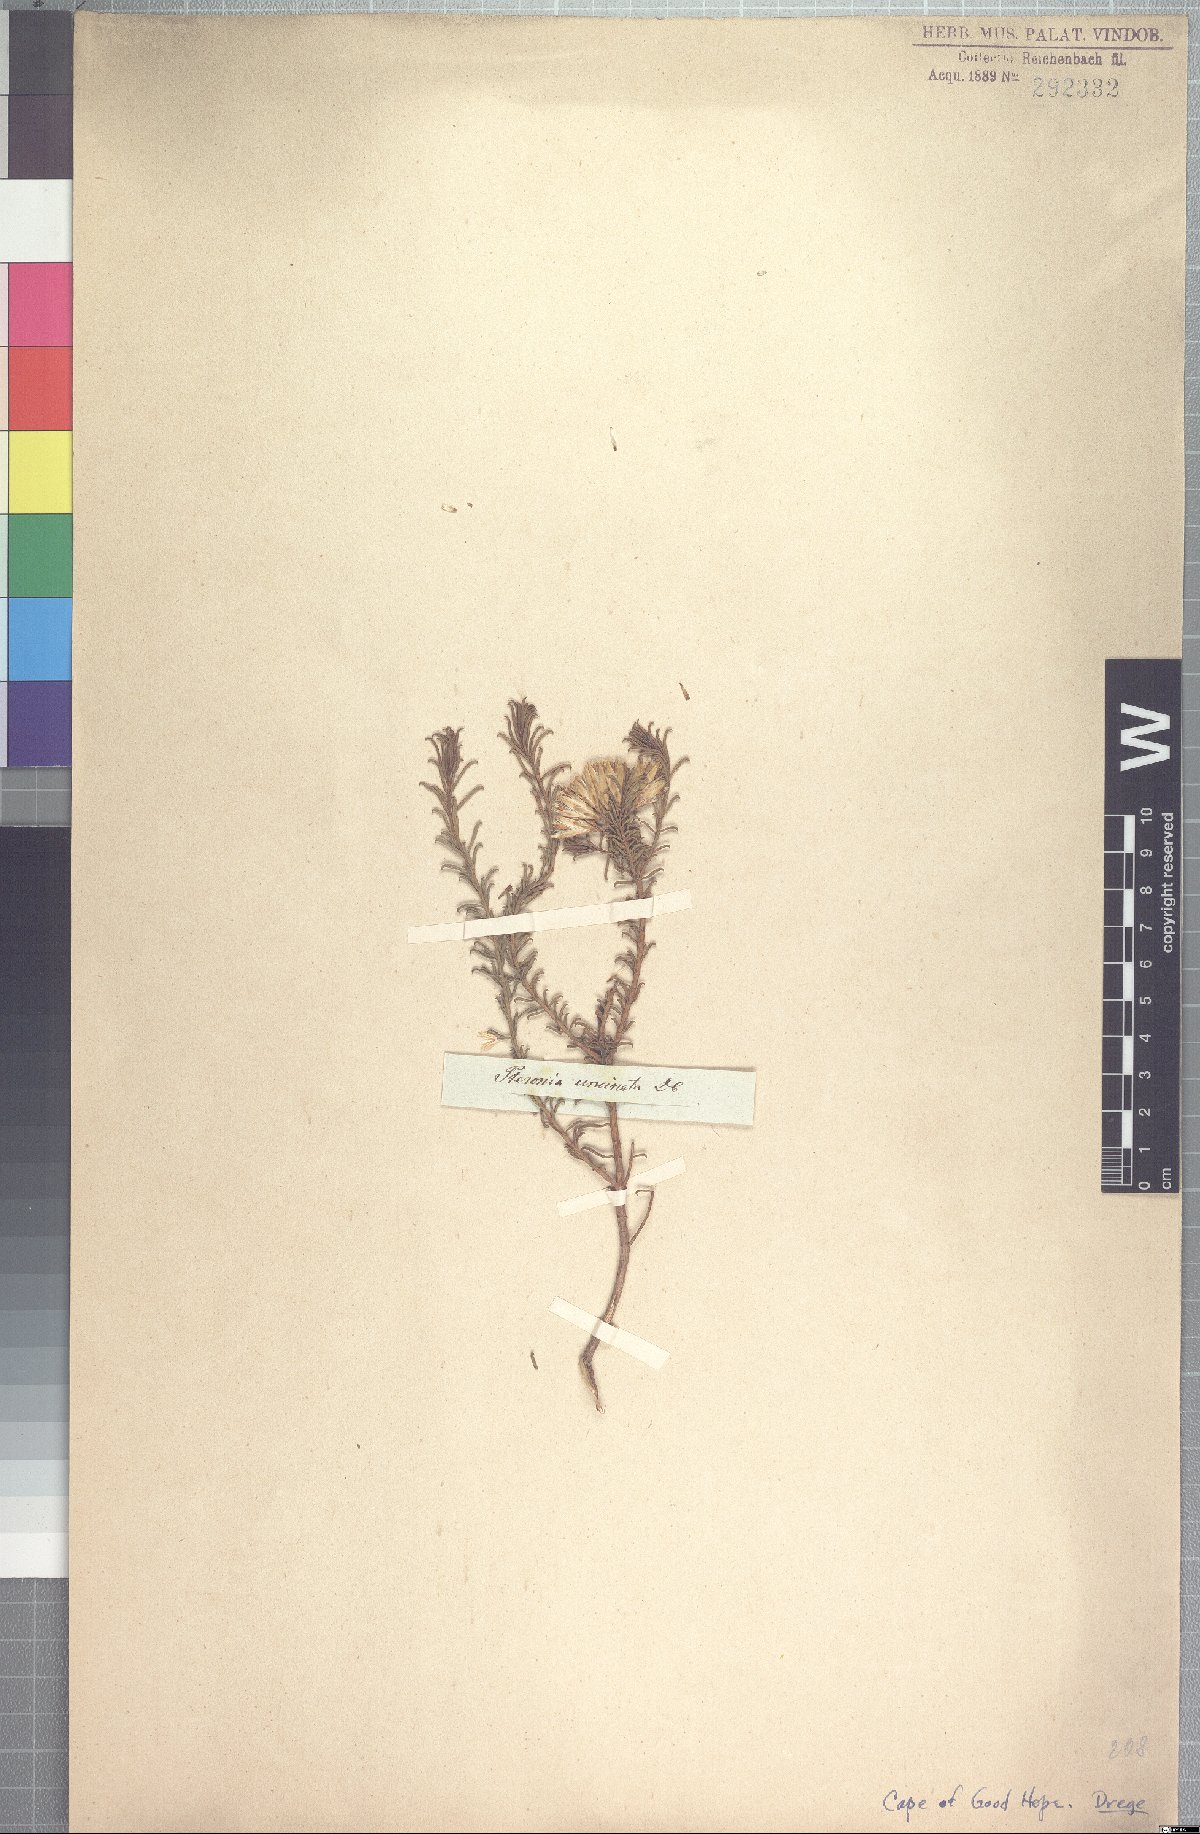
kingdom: Plantae
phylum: Tracheophyta
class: Magnoliopsida
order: Asterales
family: Asteraceae
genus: Pteronia
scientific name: Pteronia uncinata
